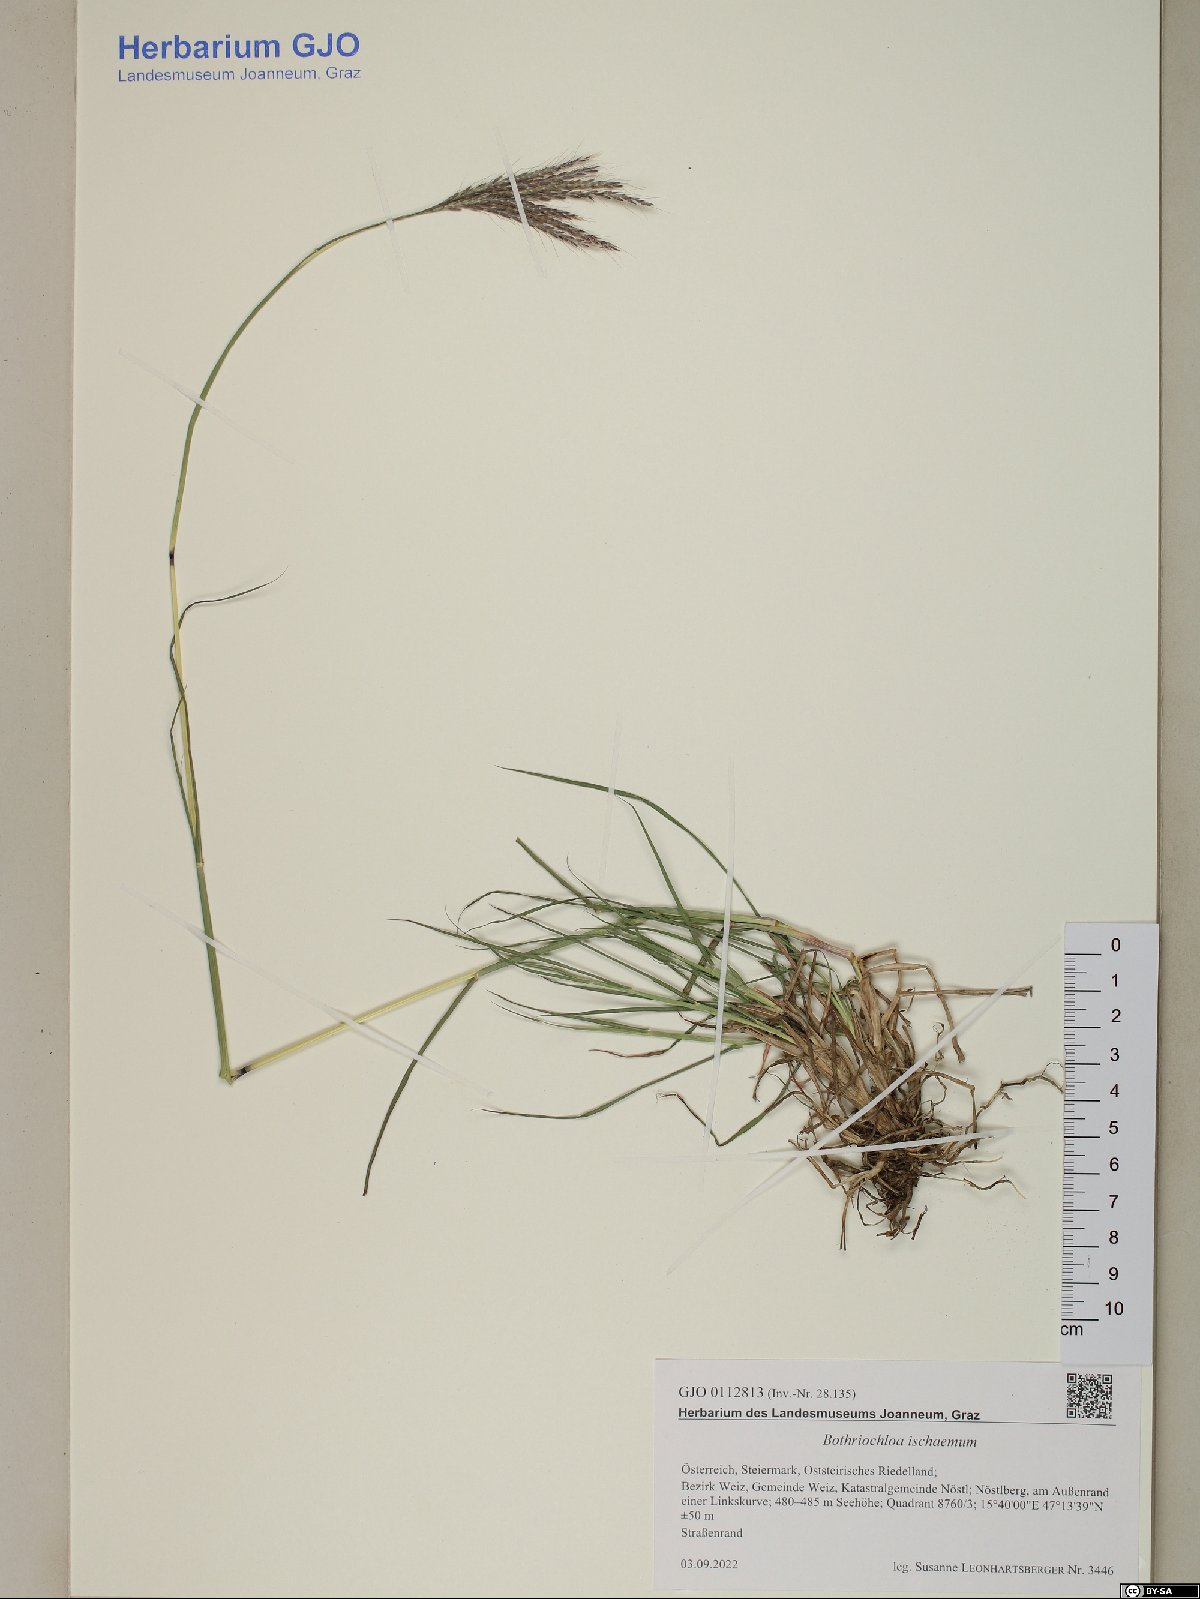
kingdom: Plantae
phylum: Tracheophyta
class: Liliopsida
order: Poales
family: Poaceae
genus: Bothriochloa
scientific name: Bothriochloa ischaemum
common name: Yellow bluestem
